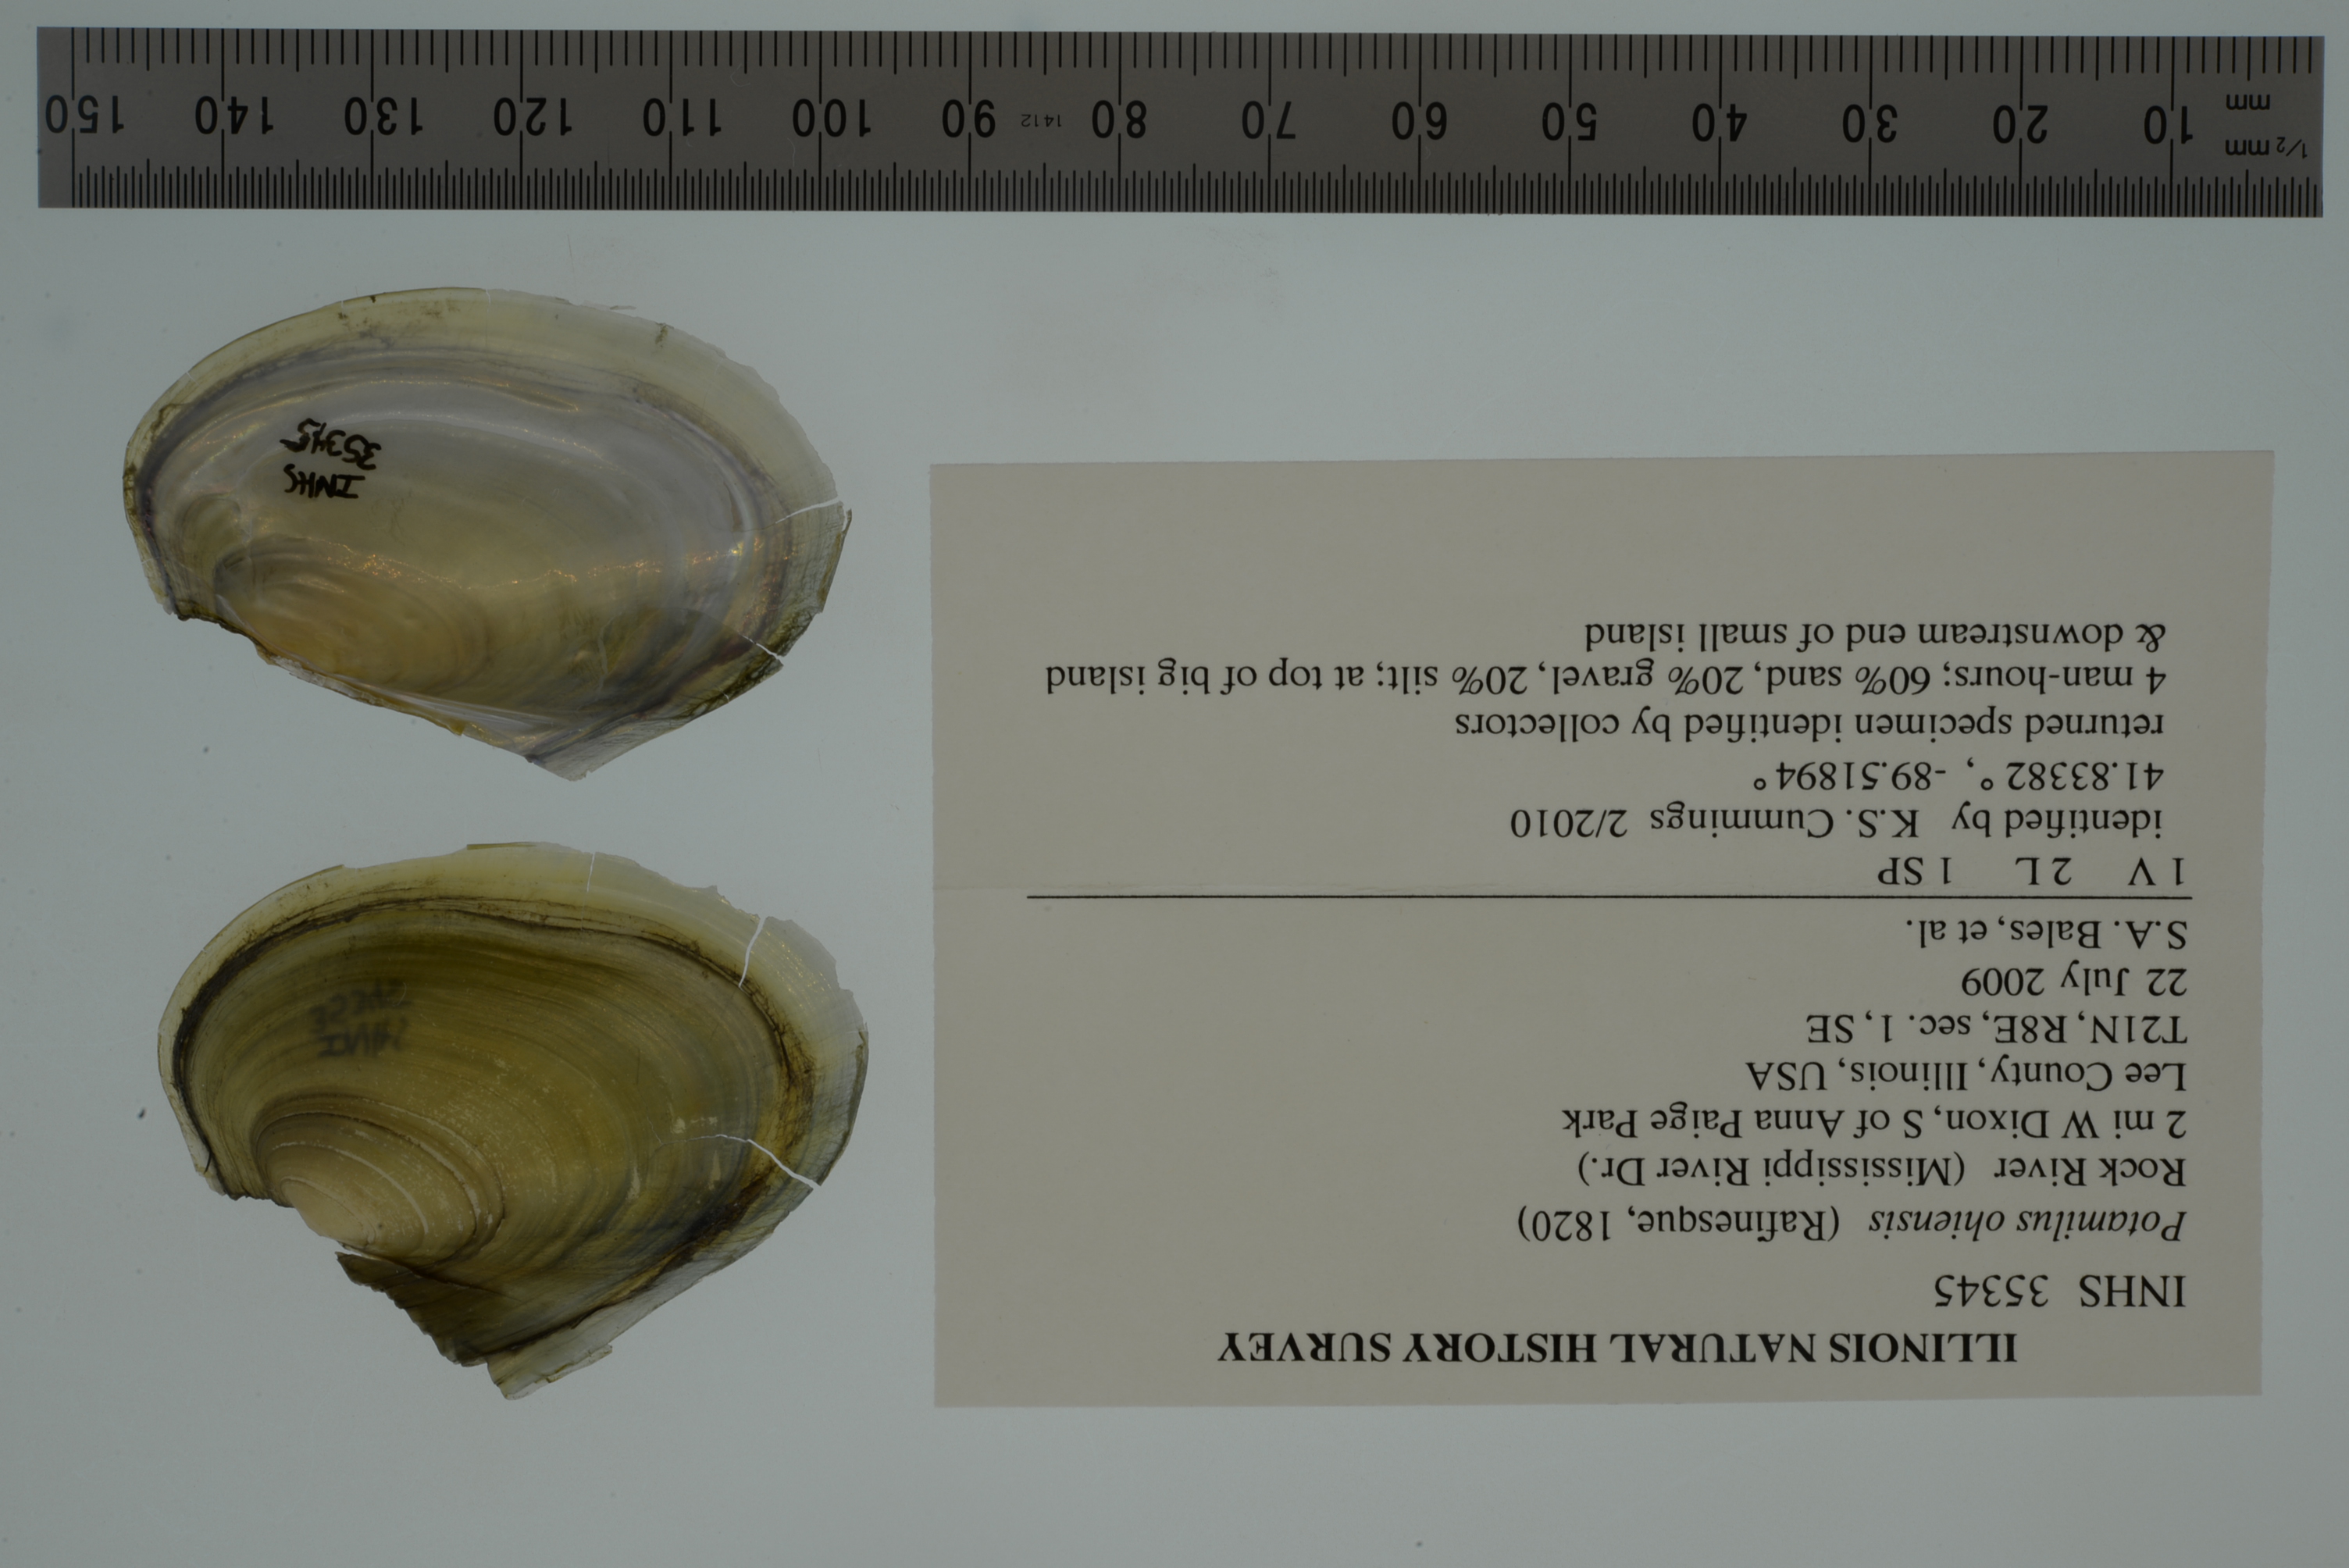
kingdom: Animalia
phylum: Mollusca
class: Bivalvia
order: Unionida
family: Unionidae
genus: Potamilus
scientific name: Potamilus ohiensis
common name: Pink papershell
